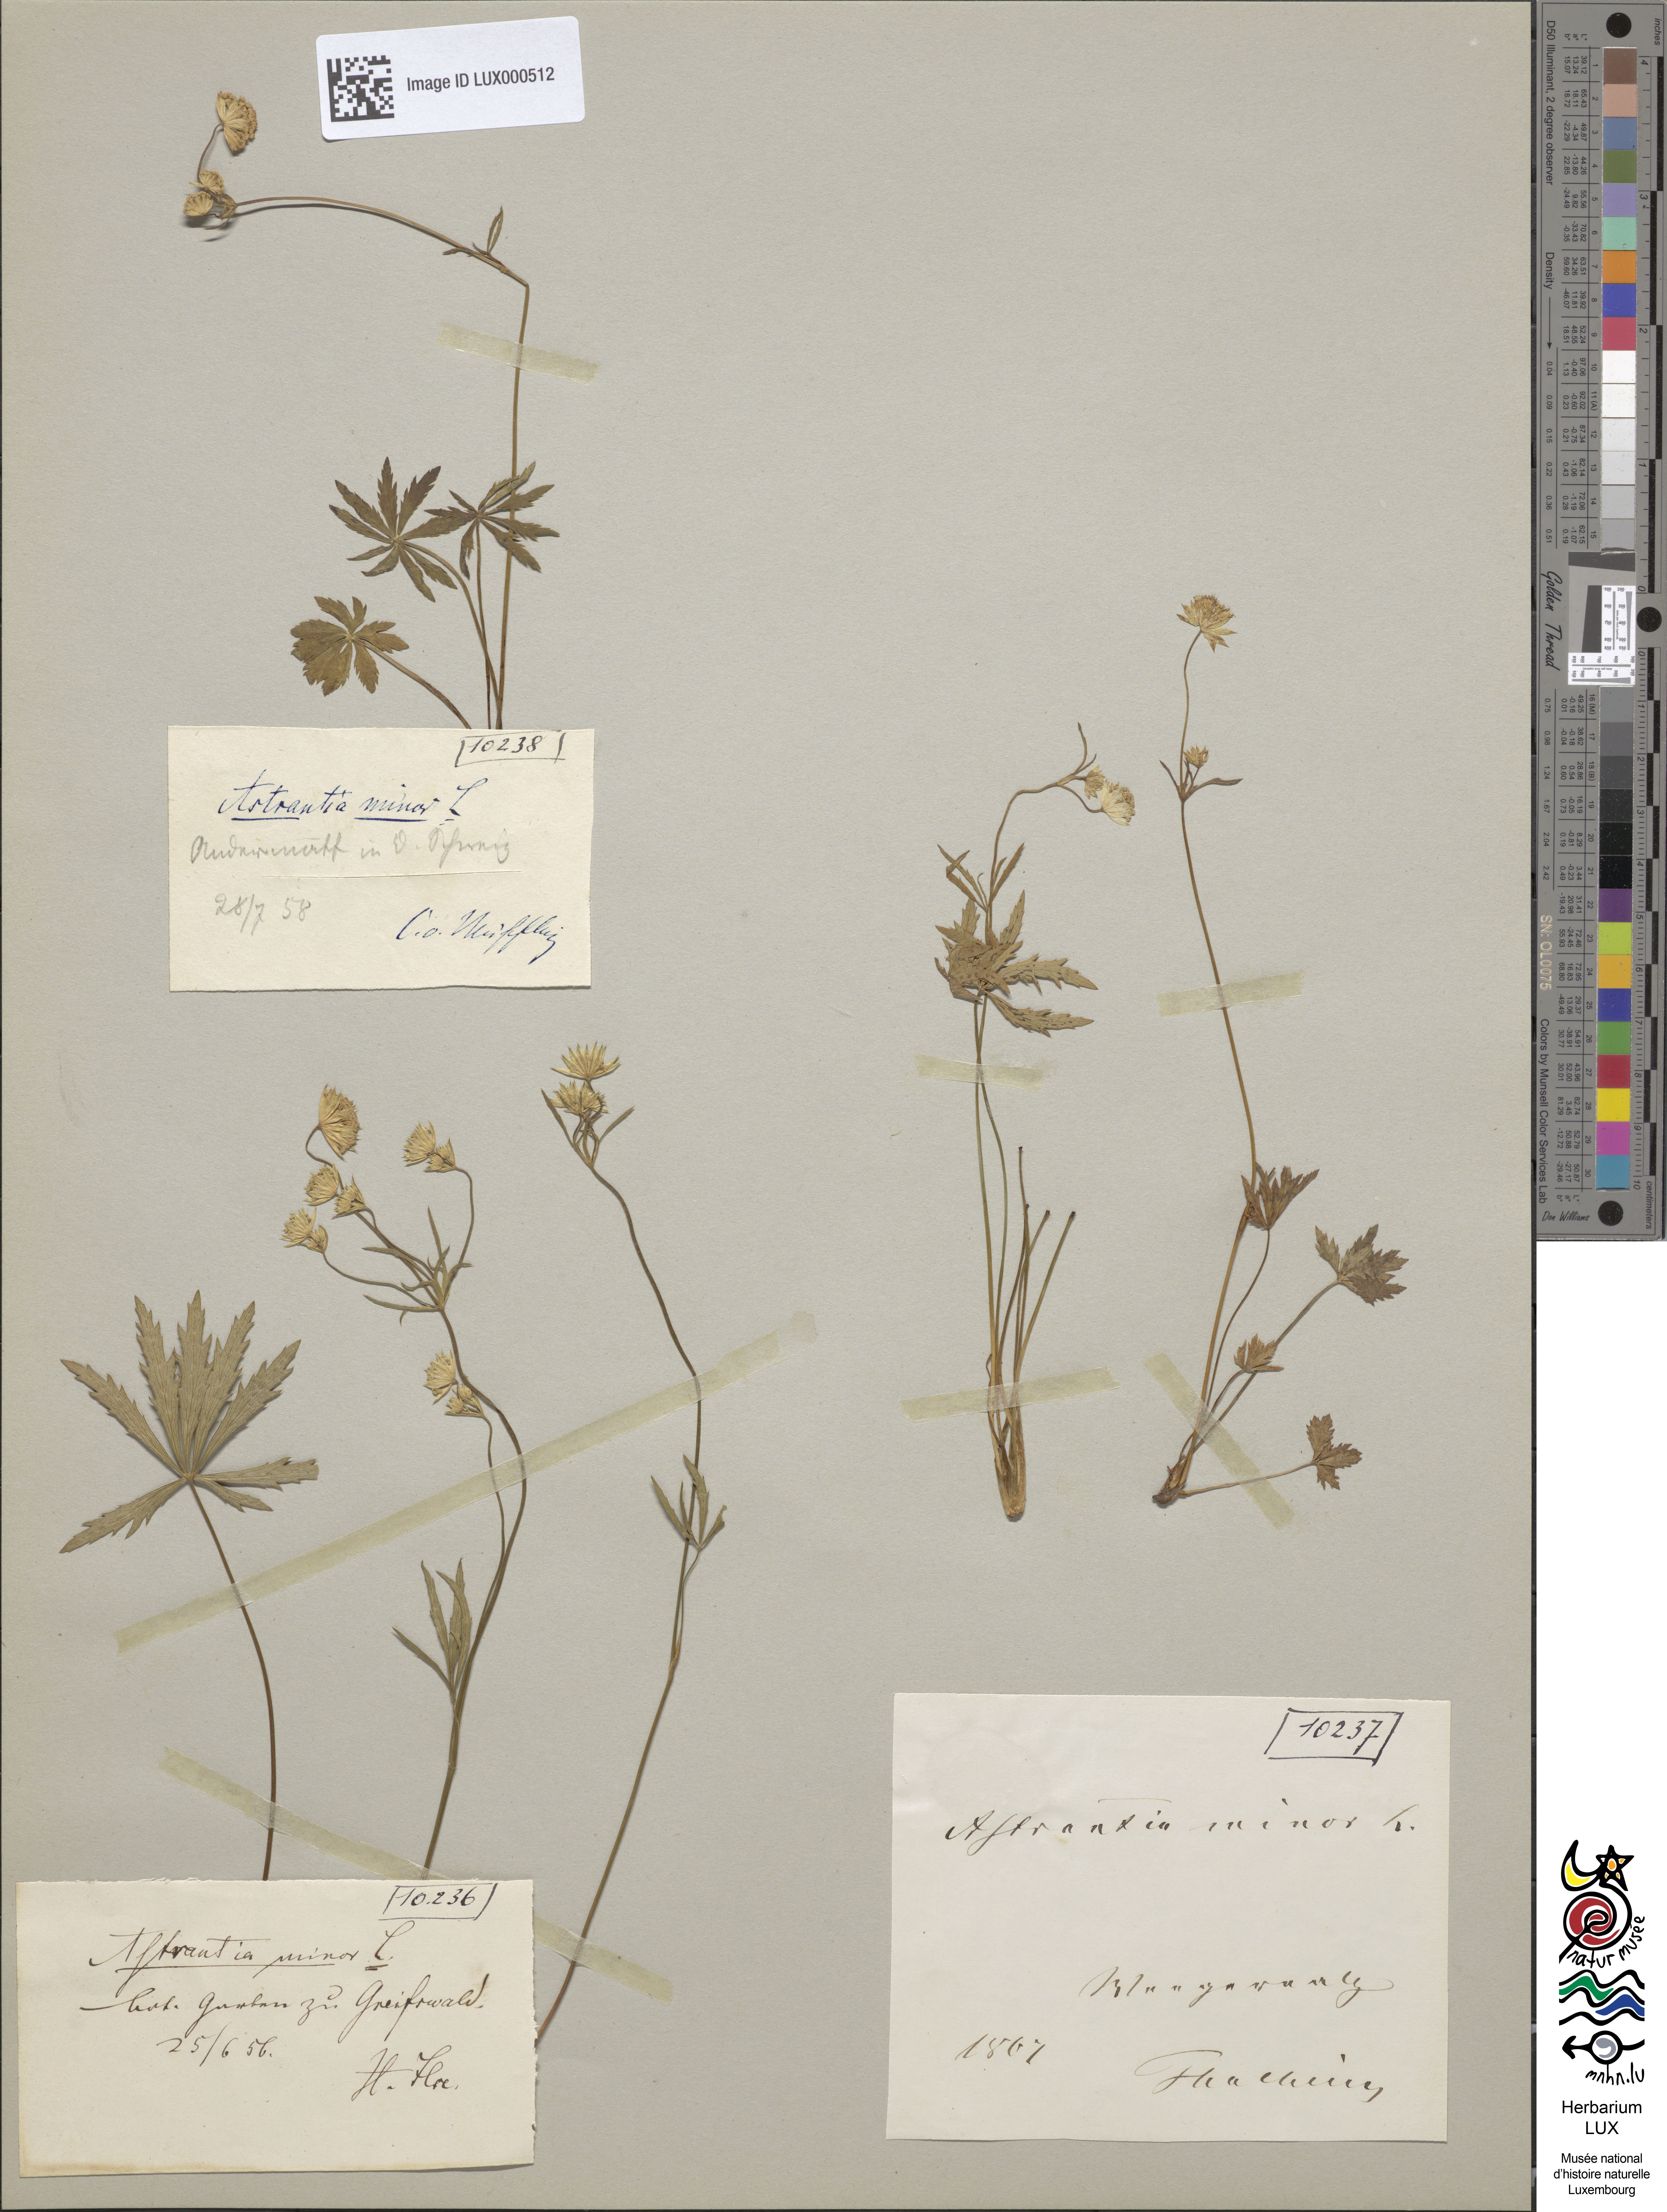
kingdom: Plantae
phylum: Tracheophyta
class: Magnoliopsida
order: Apiales
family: Apiaceae
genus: Astrantia
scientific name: Astrantia minor
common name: Lesser masterwort
